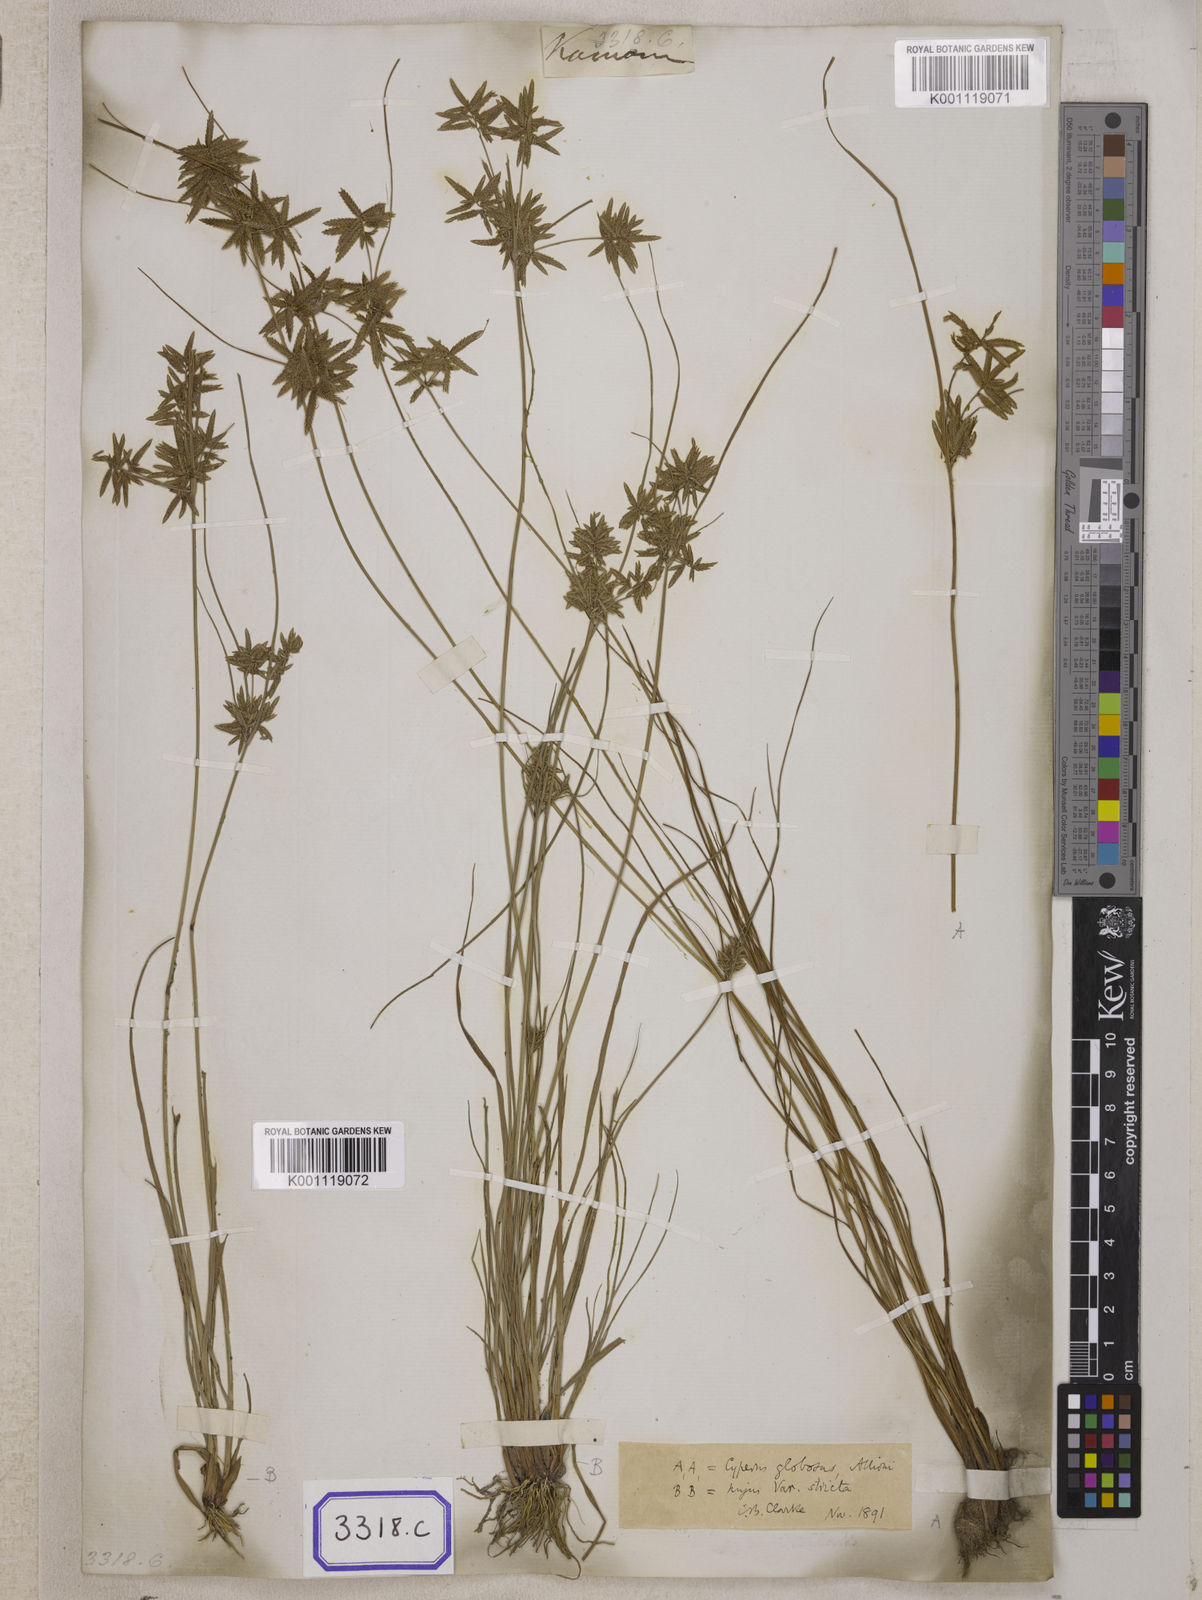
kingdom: Plantae
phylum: Tracheophyta
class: Liliopsida
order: Poales
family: Cyperaceae
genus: Cyperus
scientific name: Cyperus
